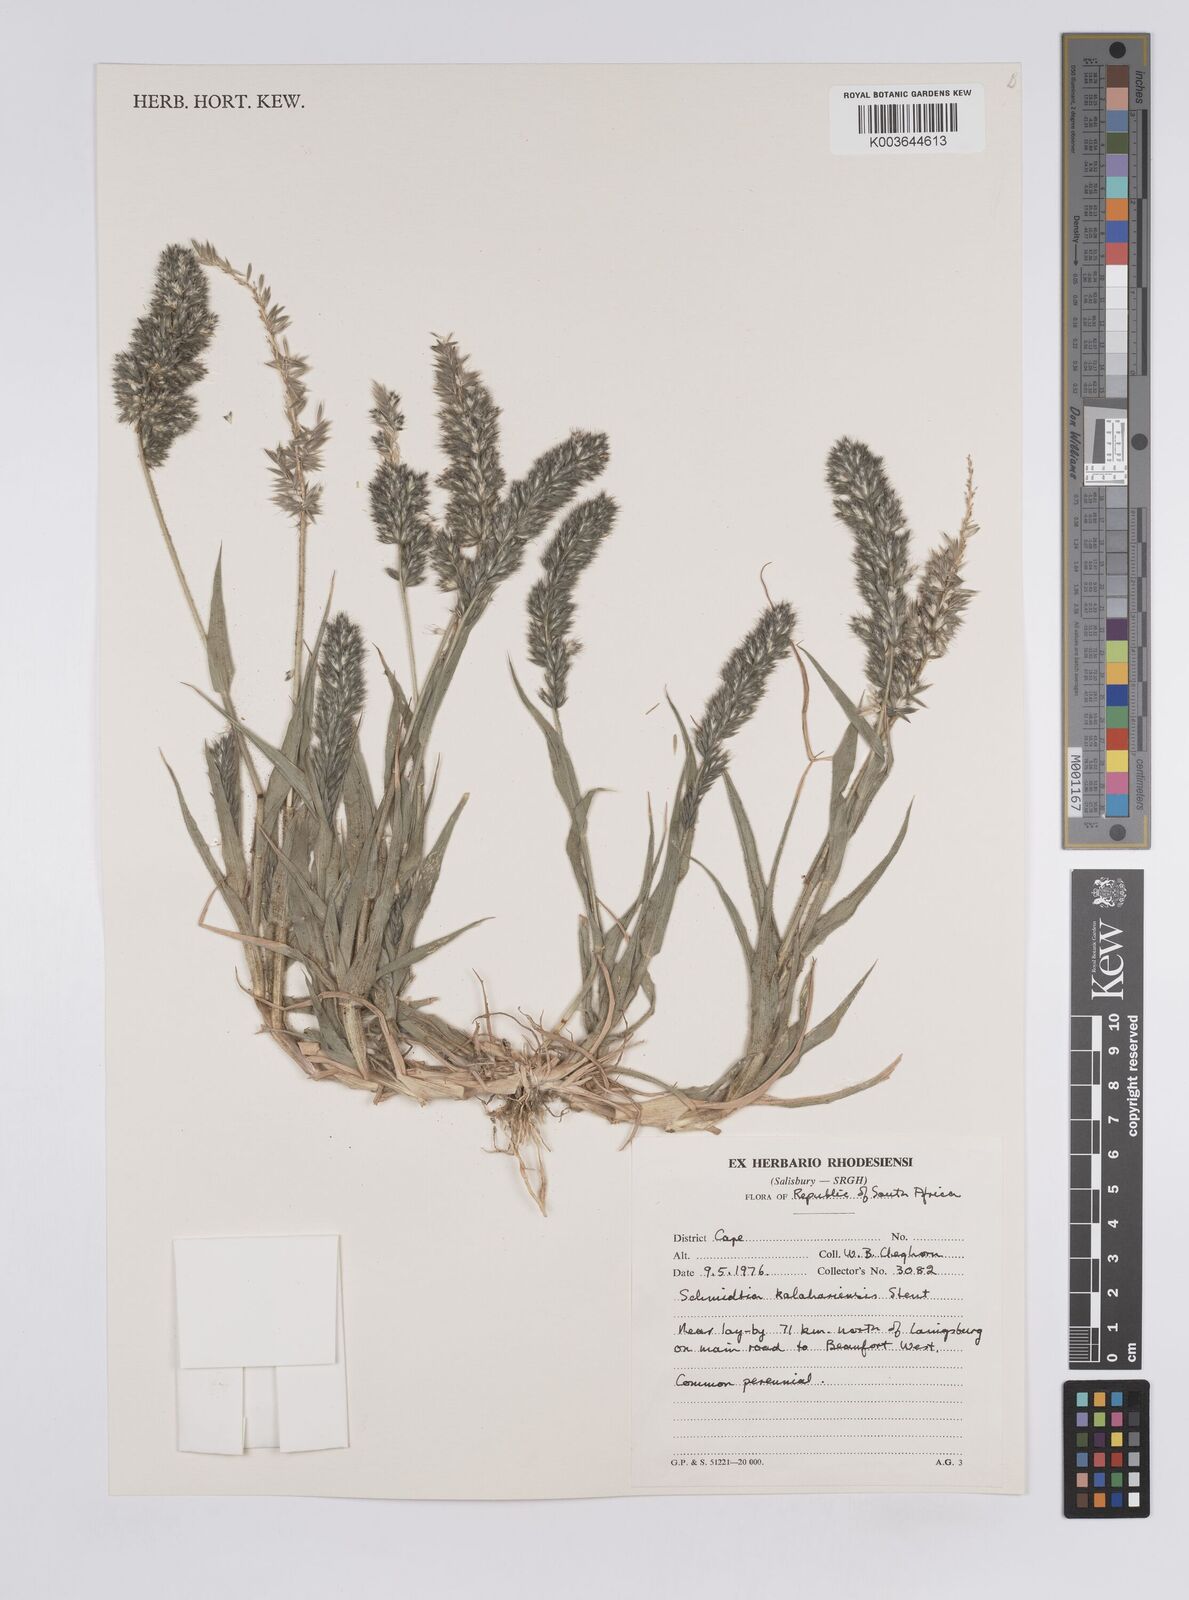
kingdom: Plantae
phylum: Tracheophyta
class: Liliopsida
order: Poales
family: Poaceae
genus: Schmidtia
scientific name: Schmidtia kalahariensis
